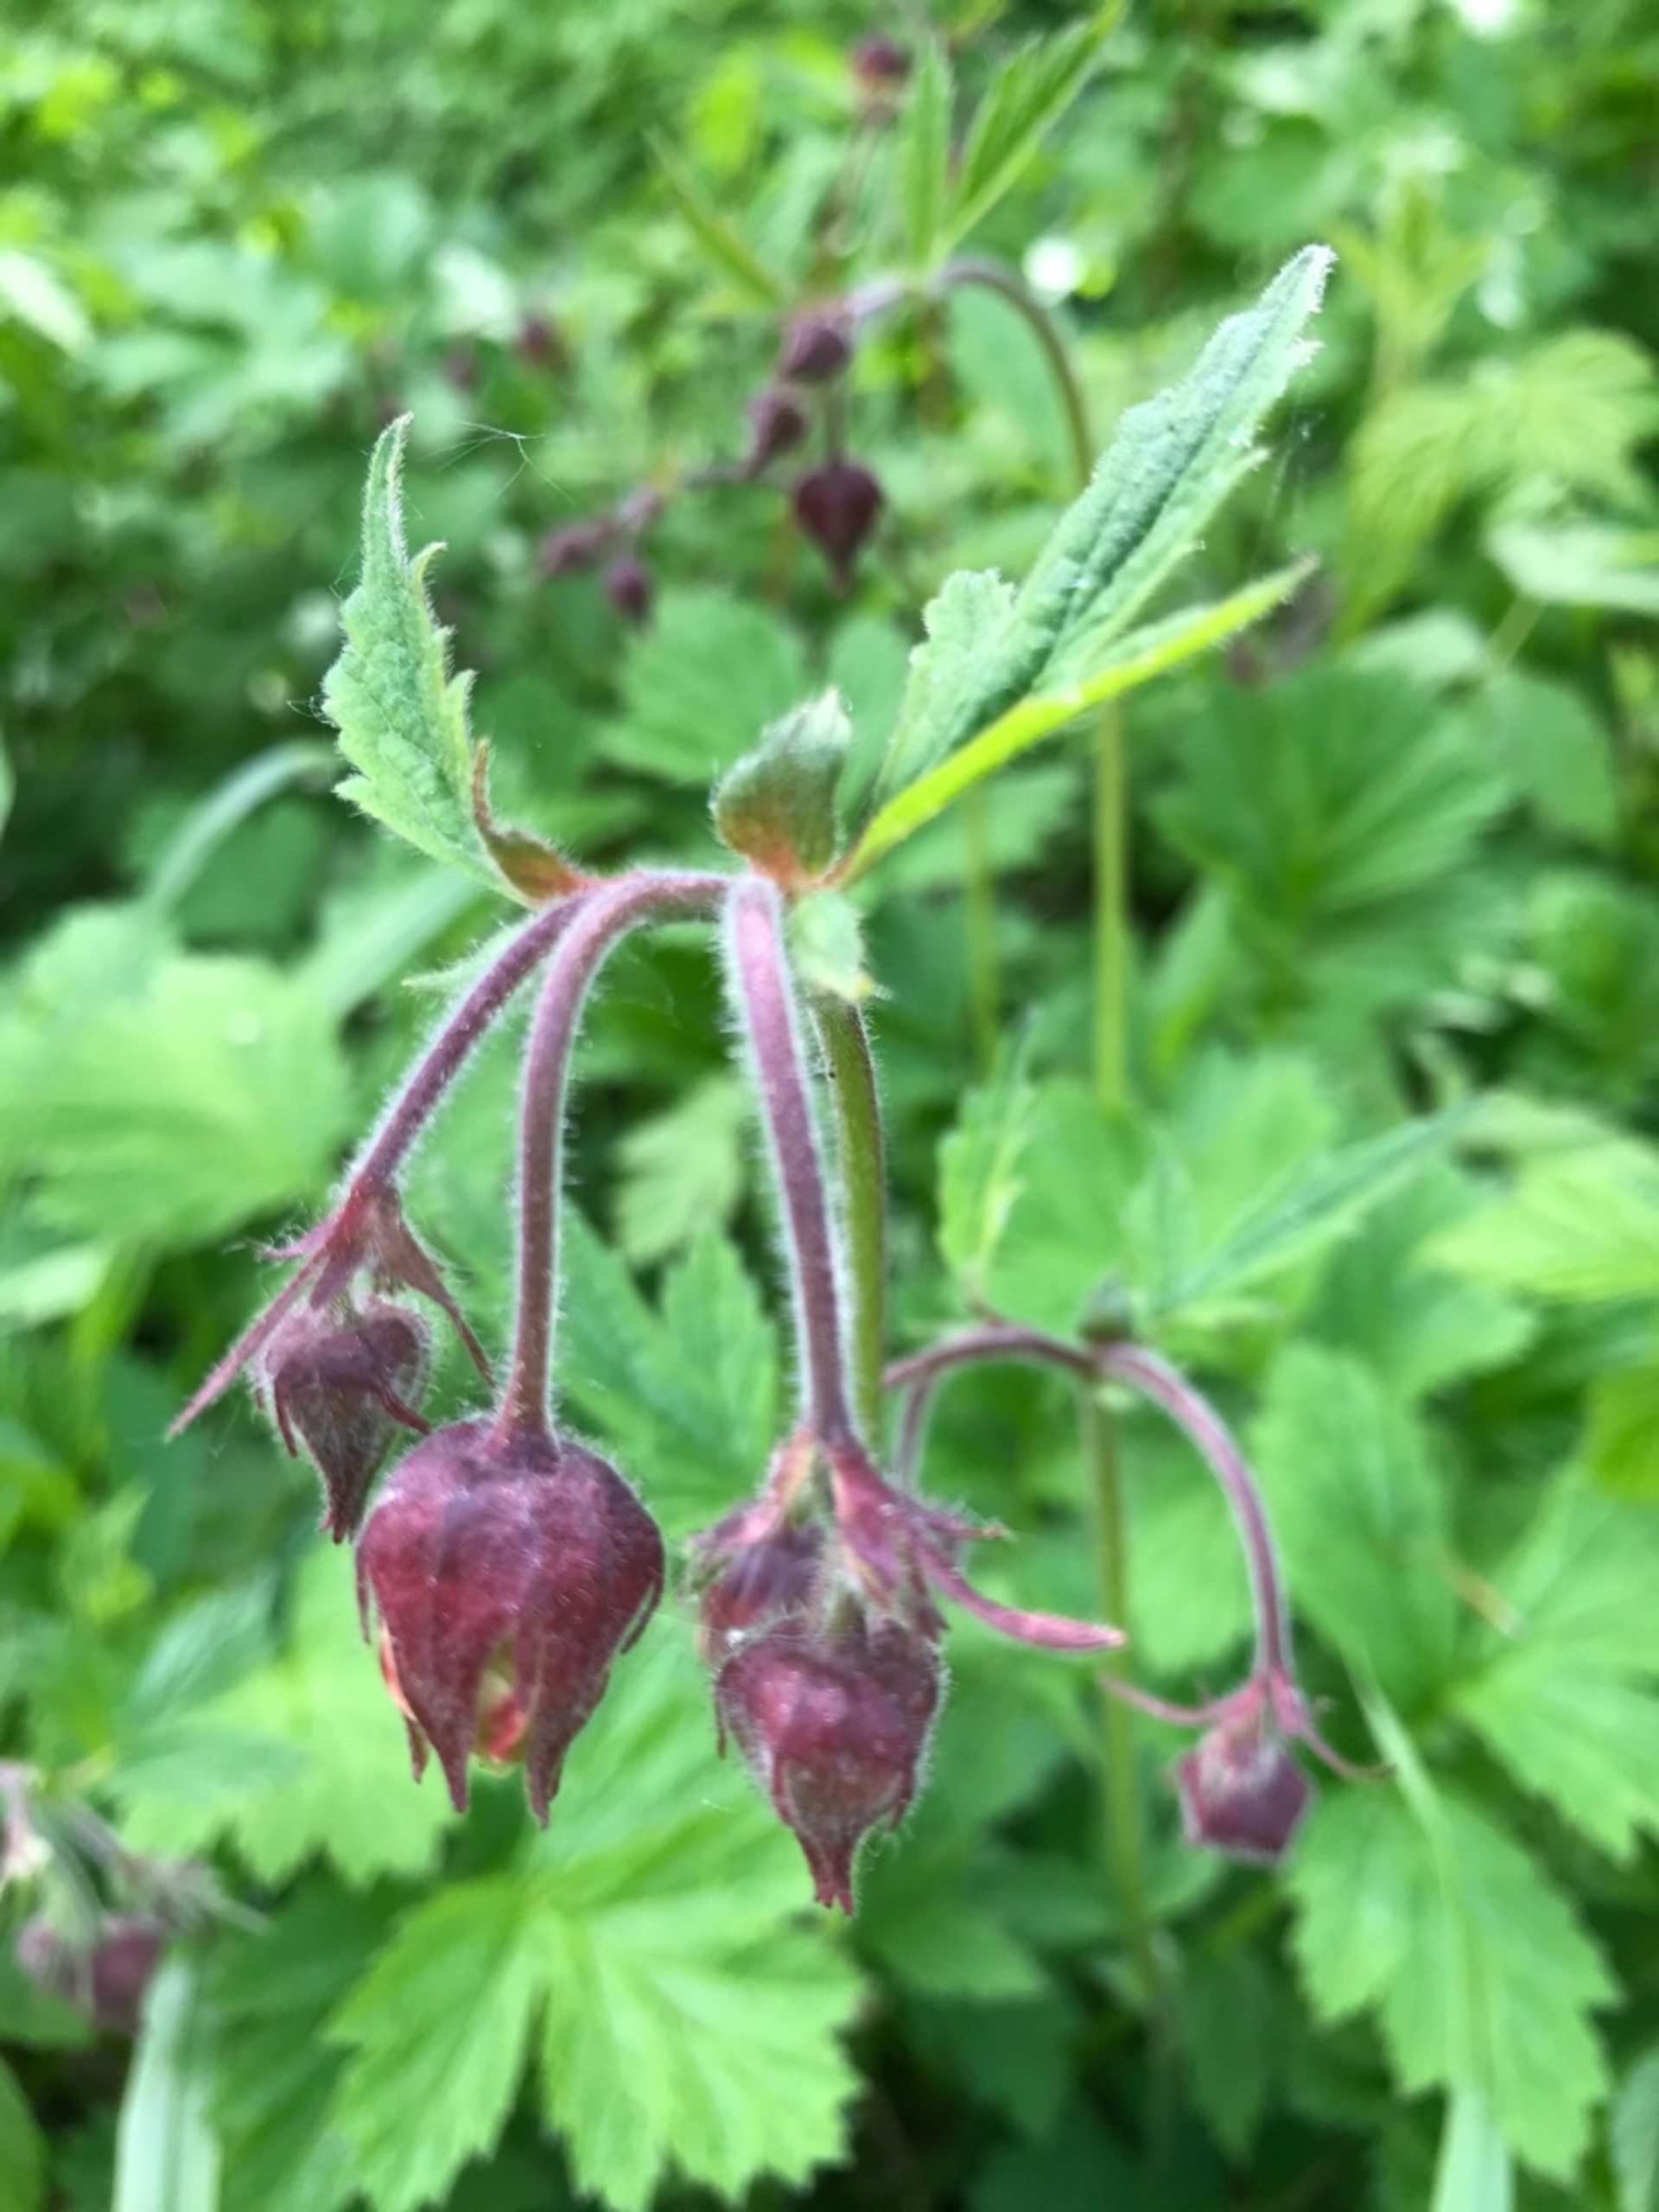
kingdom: Plantae
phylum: Tracheophyta
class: Magnoliopsida
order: Rosales
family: Rosaceae
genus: Geum
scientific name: Geum rivale
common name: Eng-nellikerod
